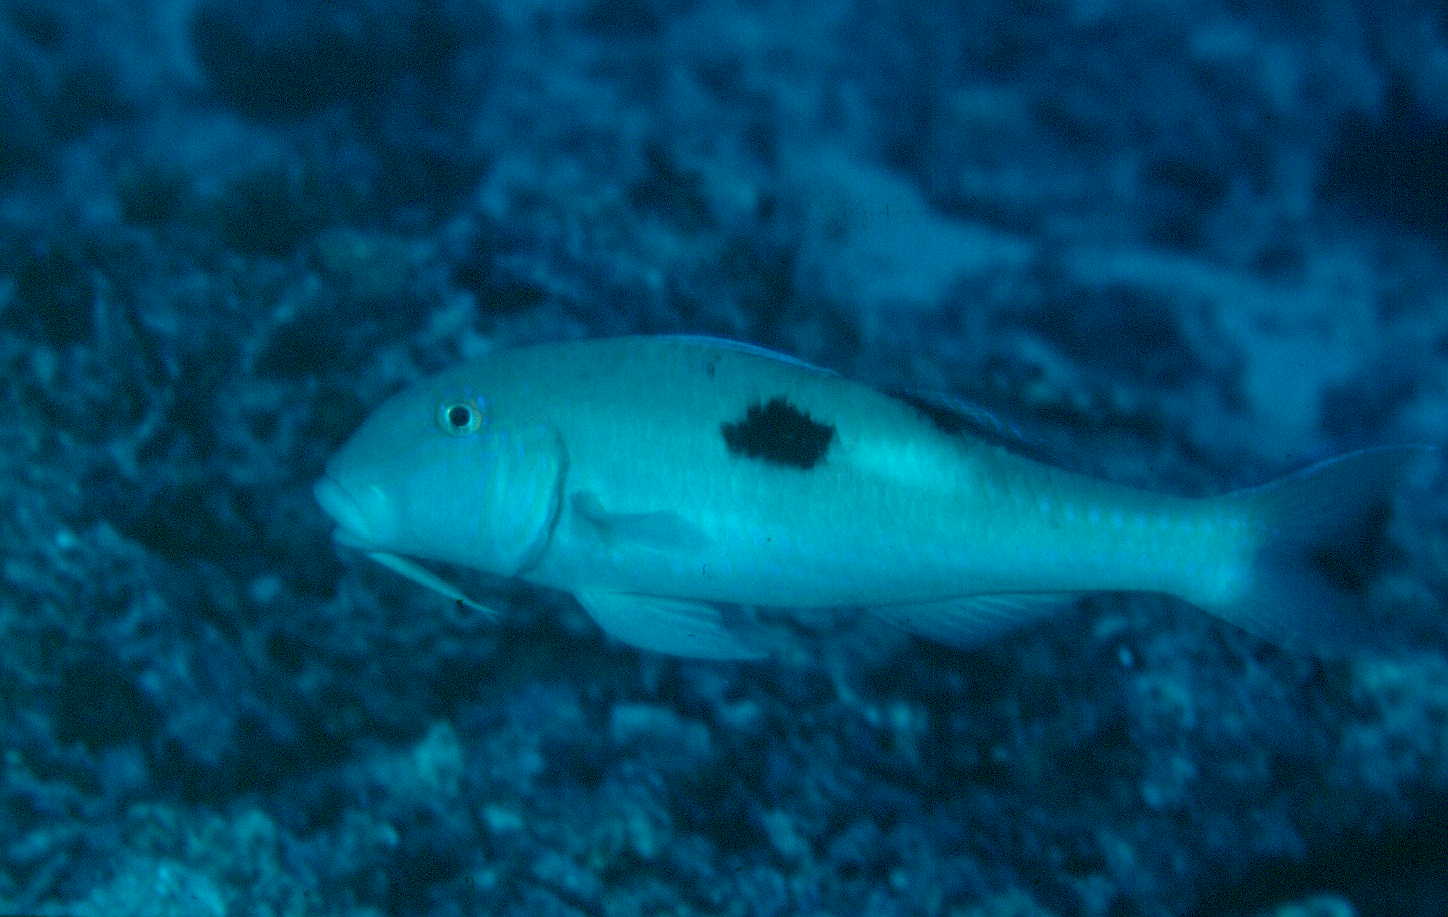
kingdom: Animalia
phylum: Chordata
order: Perciformes
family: Mullidae
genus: Parupeneus
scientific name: Parupeneus pleurostigma
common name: Sidespot goatfish
